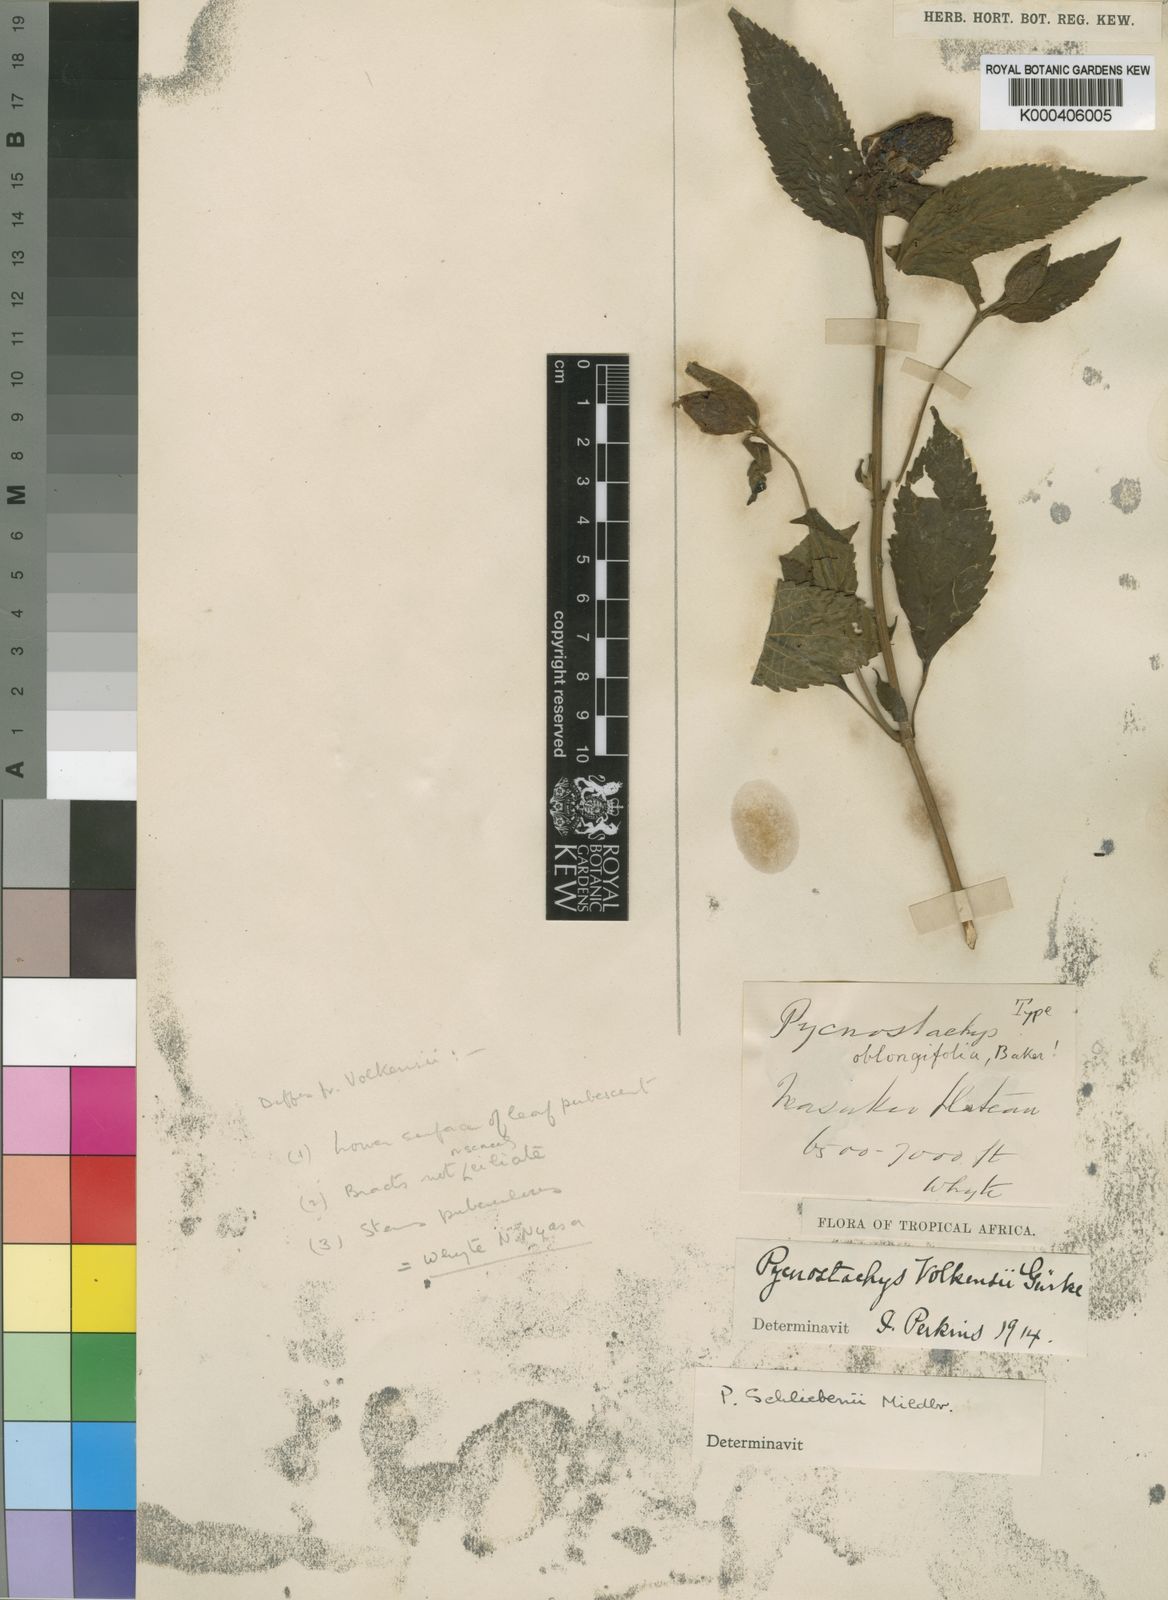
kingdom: Plantae
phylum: Tracheophyta
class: Magnoliopsida
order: Lamiales
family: Lamiaceae
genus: Coleus
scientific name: Coleus schliebenii
